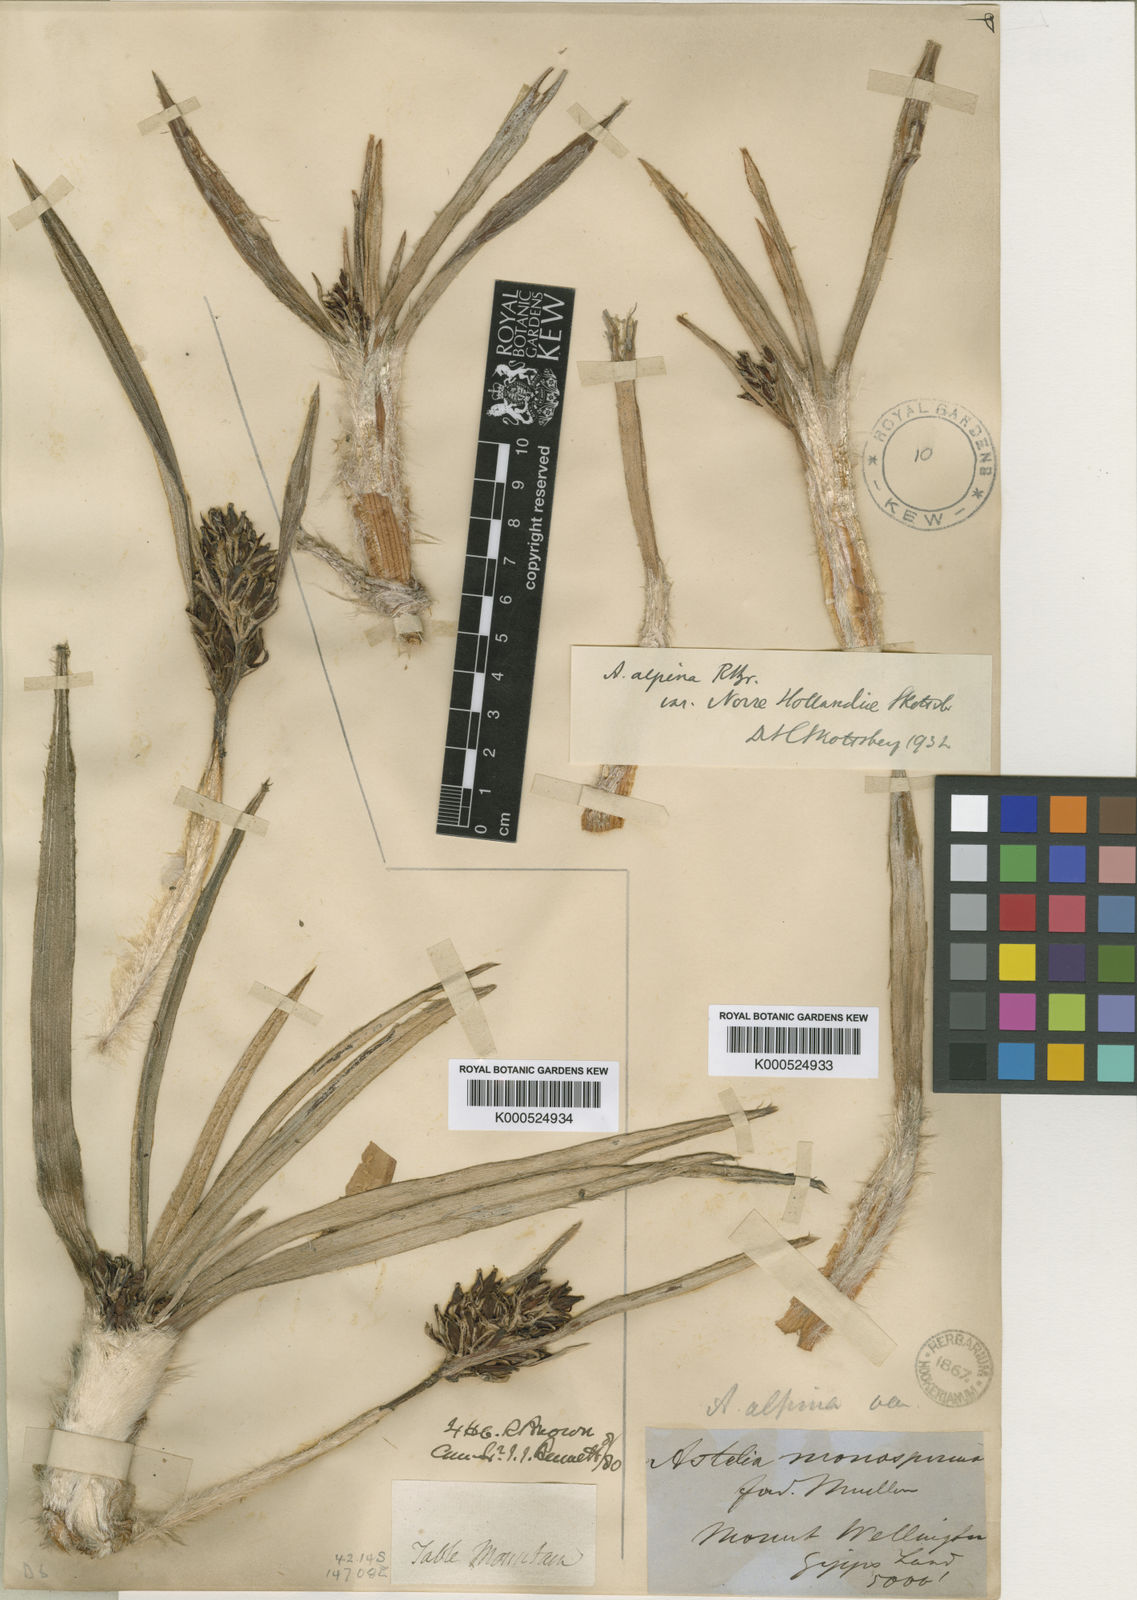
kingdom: Plantae
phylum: Tracheophyta
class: Liliopsida
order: Asparagales
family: Asteliaceae
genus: Astelia
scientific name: Astelia alpina
